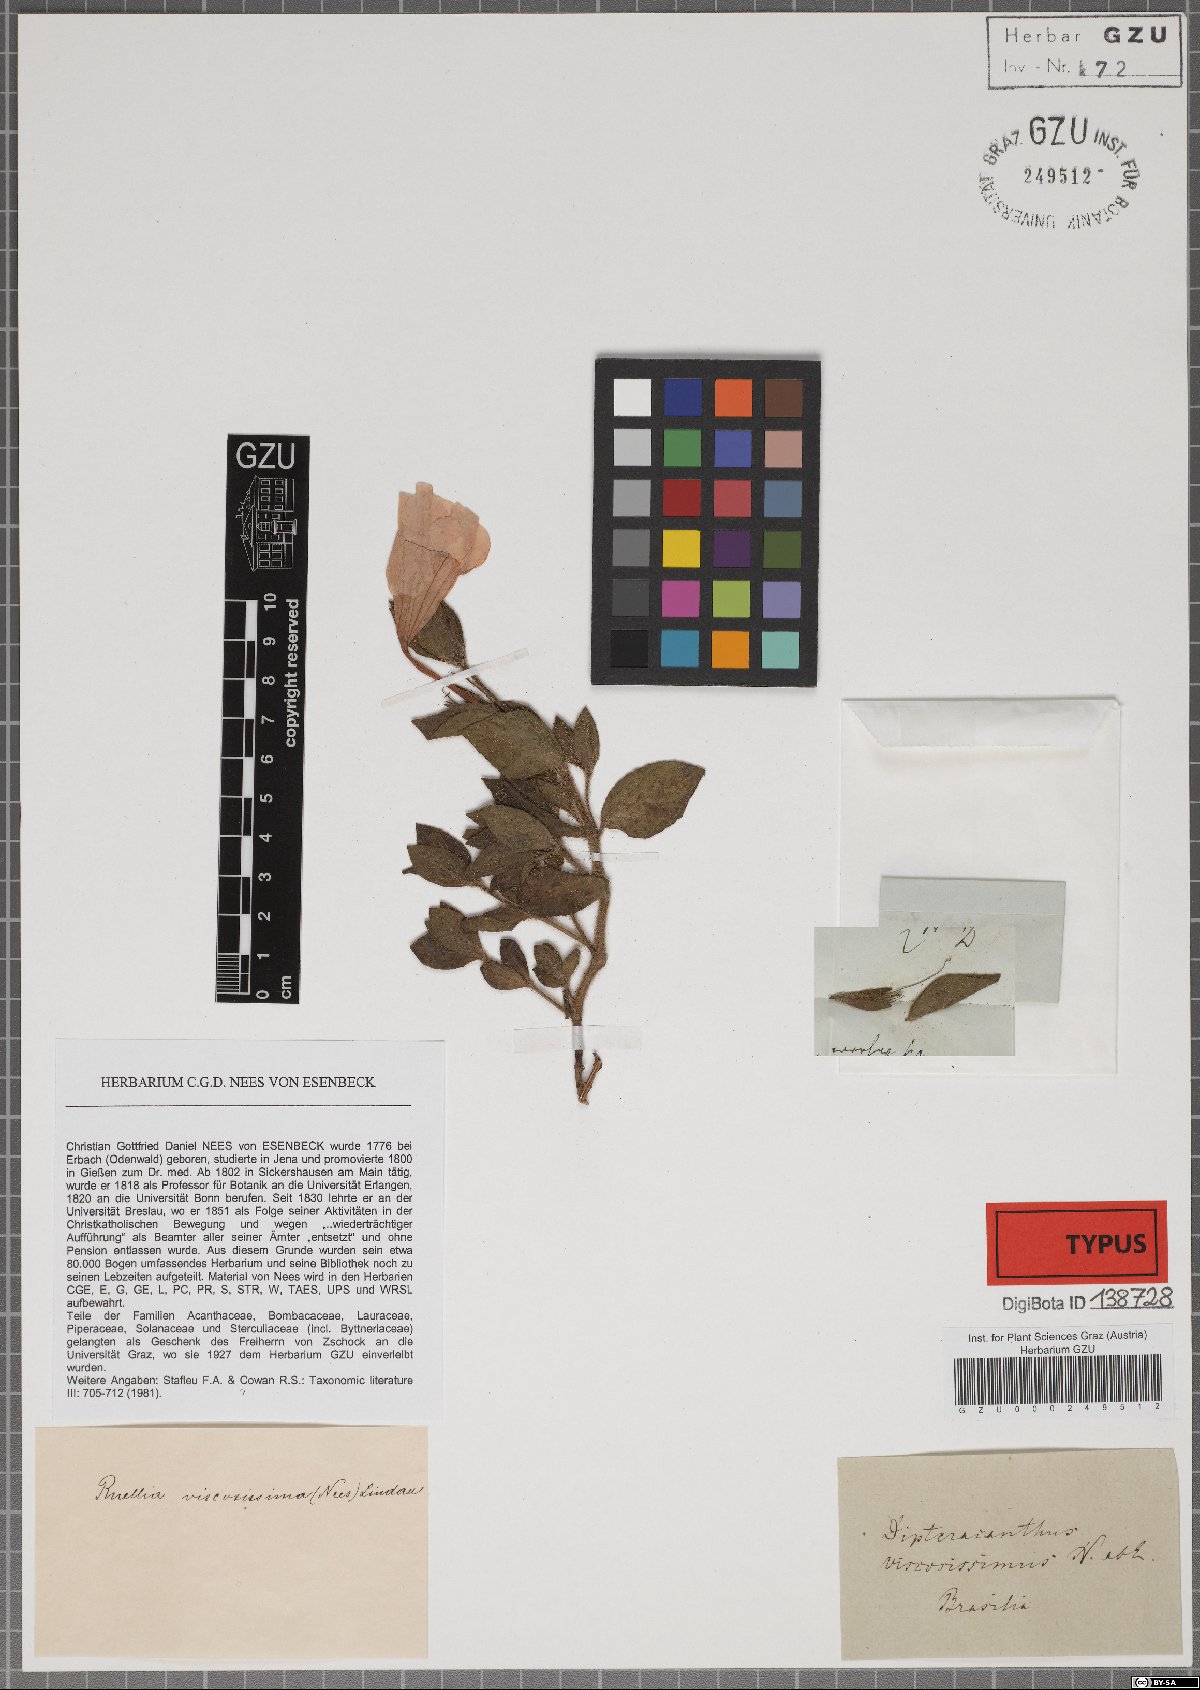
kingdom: Plantae
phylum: Tracheophyta
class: Magnoliopsida
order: Lamiales
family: Acanthaceae
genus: Ruellia
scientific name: Ruellia multifolia
